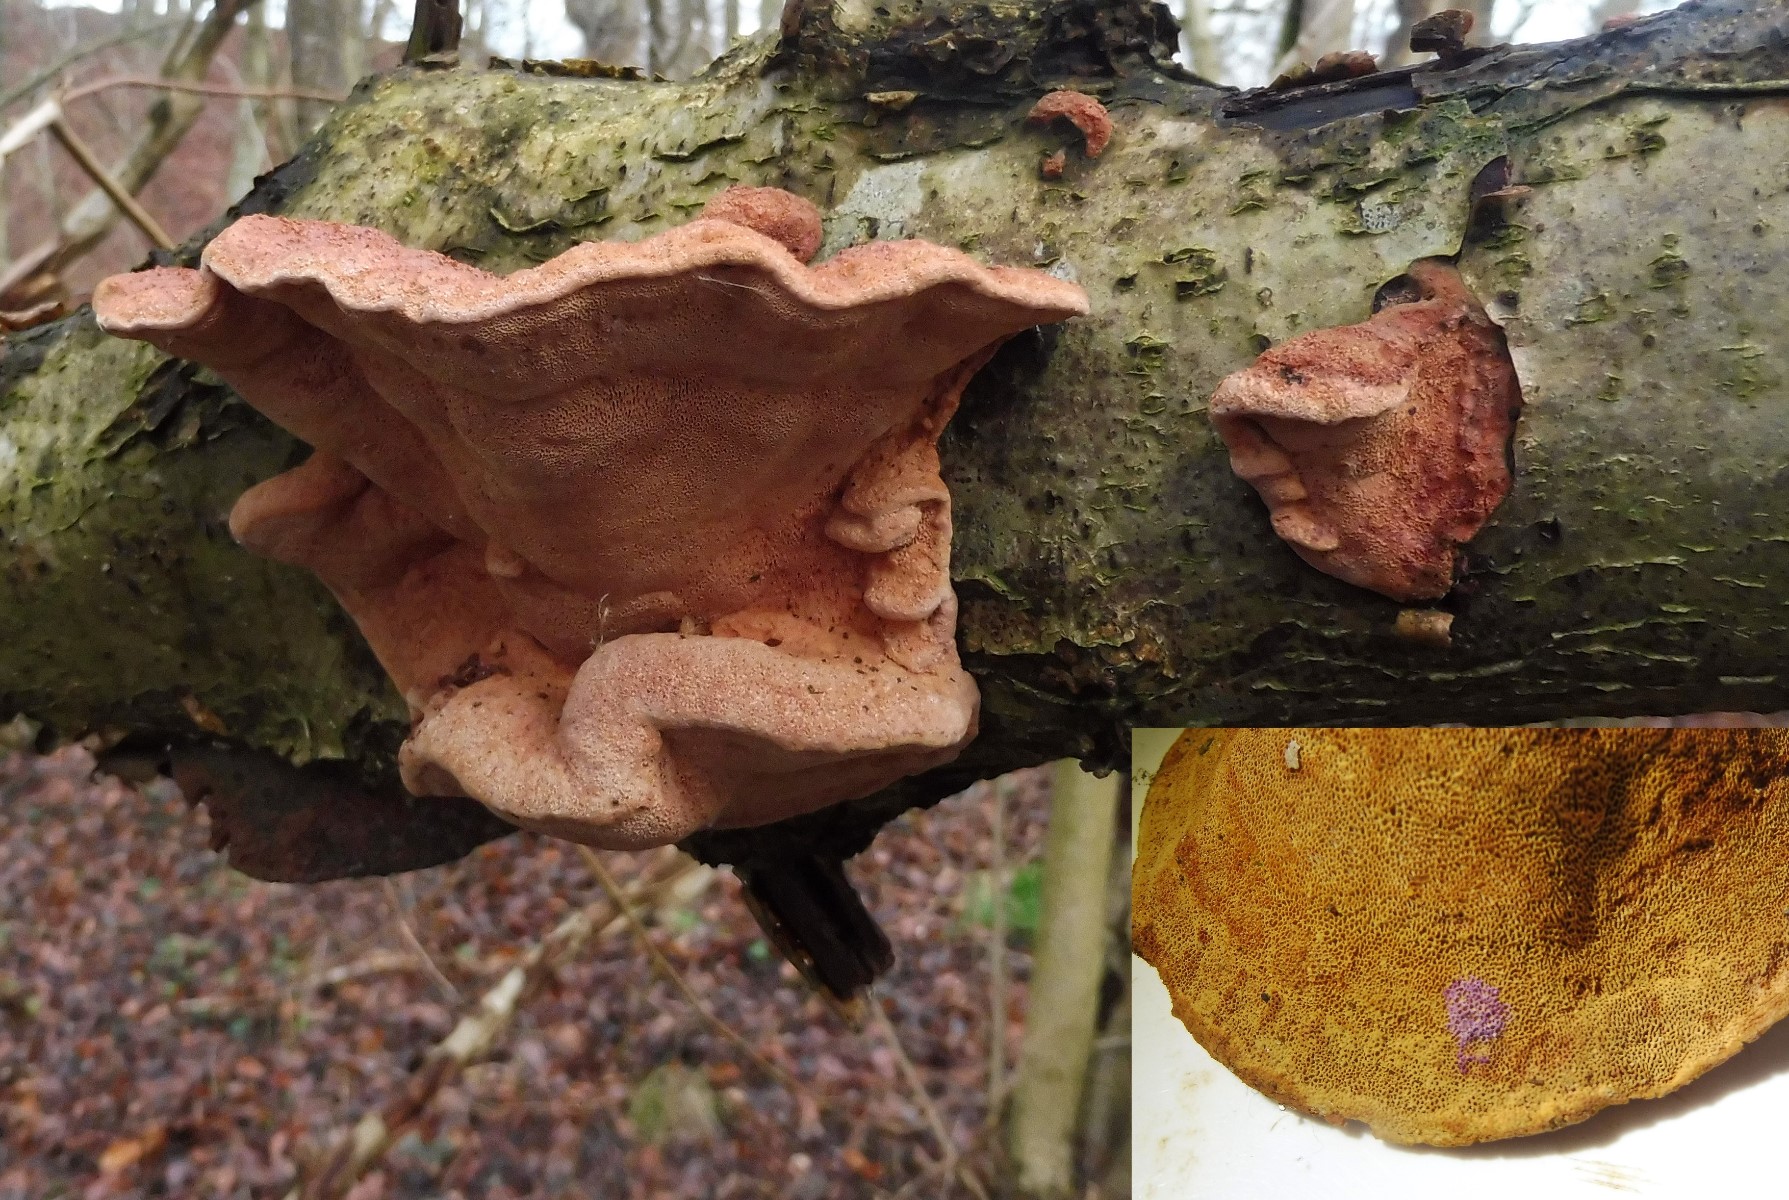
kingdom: Fungi
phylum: Basidiomycota
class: Agaricomycetes
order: Polyporales
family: Phanerochaetaceae
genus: Hapalopilus
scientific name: Hapalopilus rutilans
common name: rødlig okkerporesvamp
